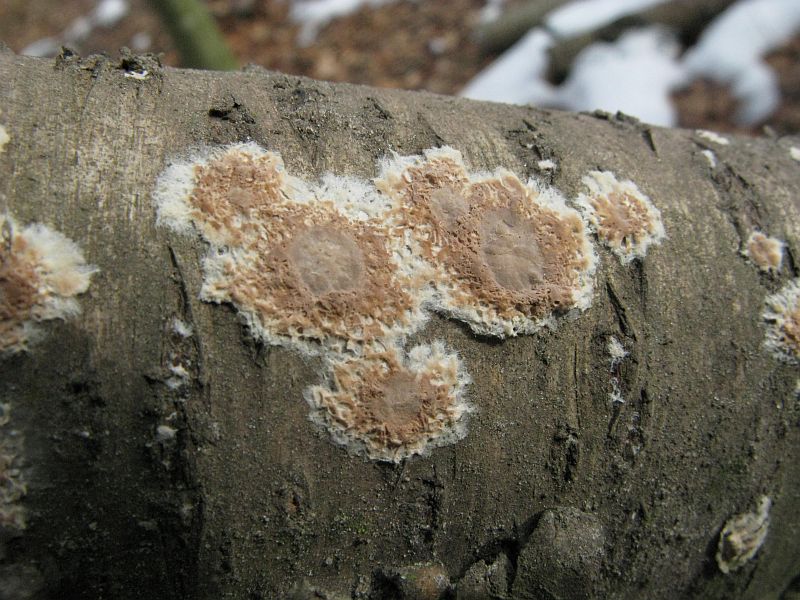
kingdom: Fungi
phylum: Basidiomycota
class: Agaricomycetes
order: Agaricales
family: Physalacriaceae
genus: Cylindrobasidium
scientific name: Cylindrobasidium evolvens
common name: sprækkehinde
